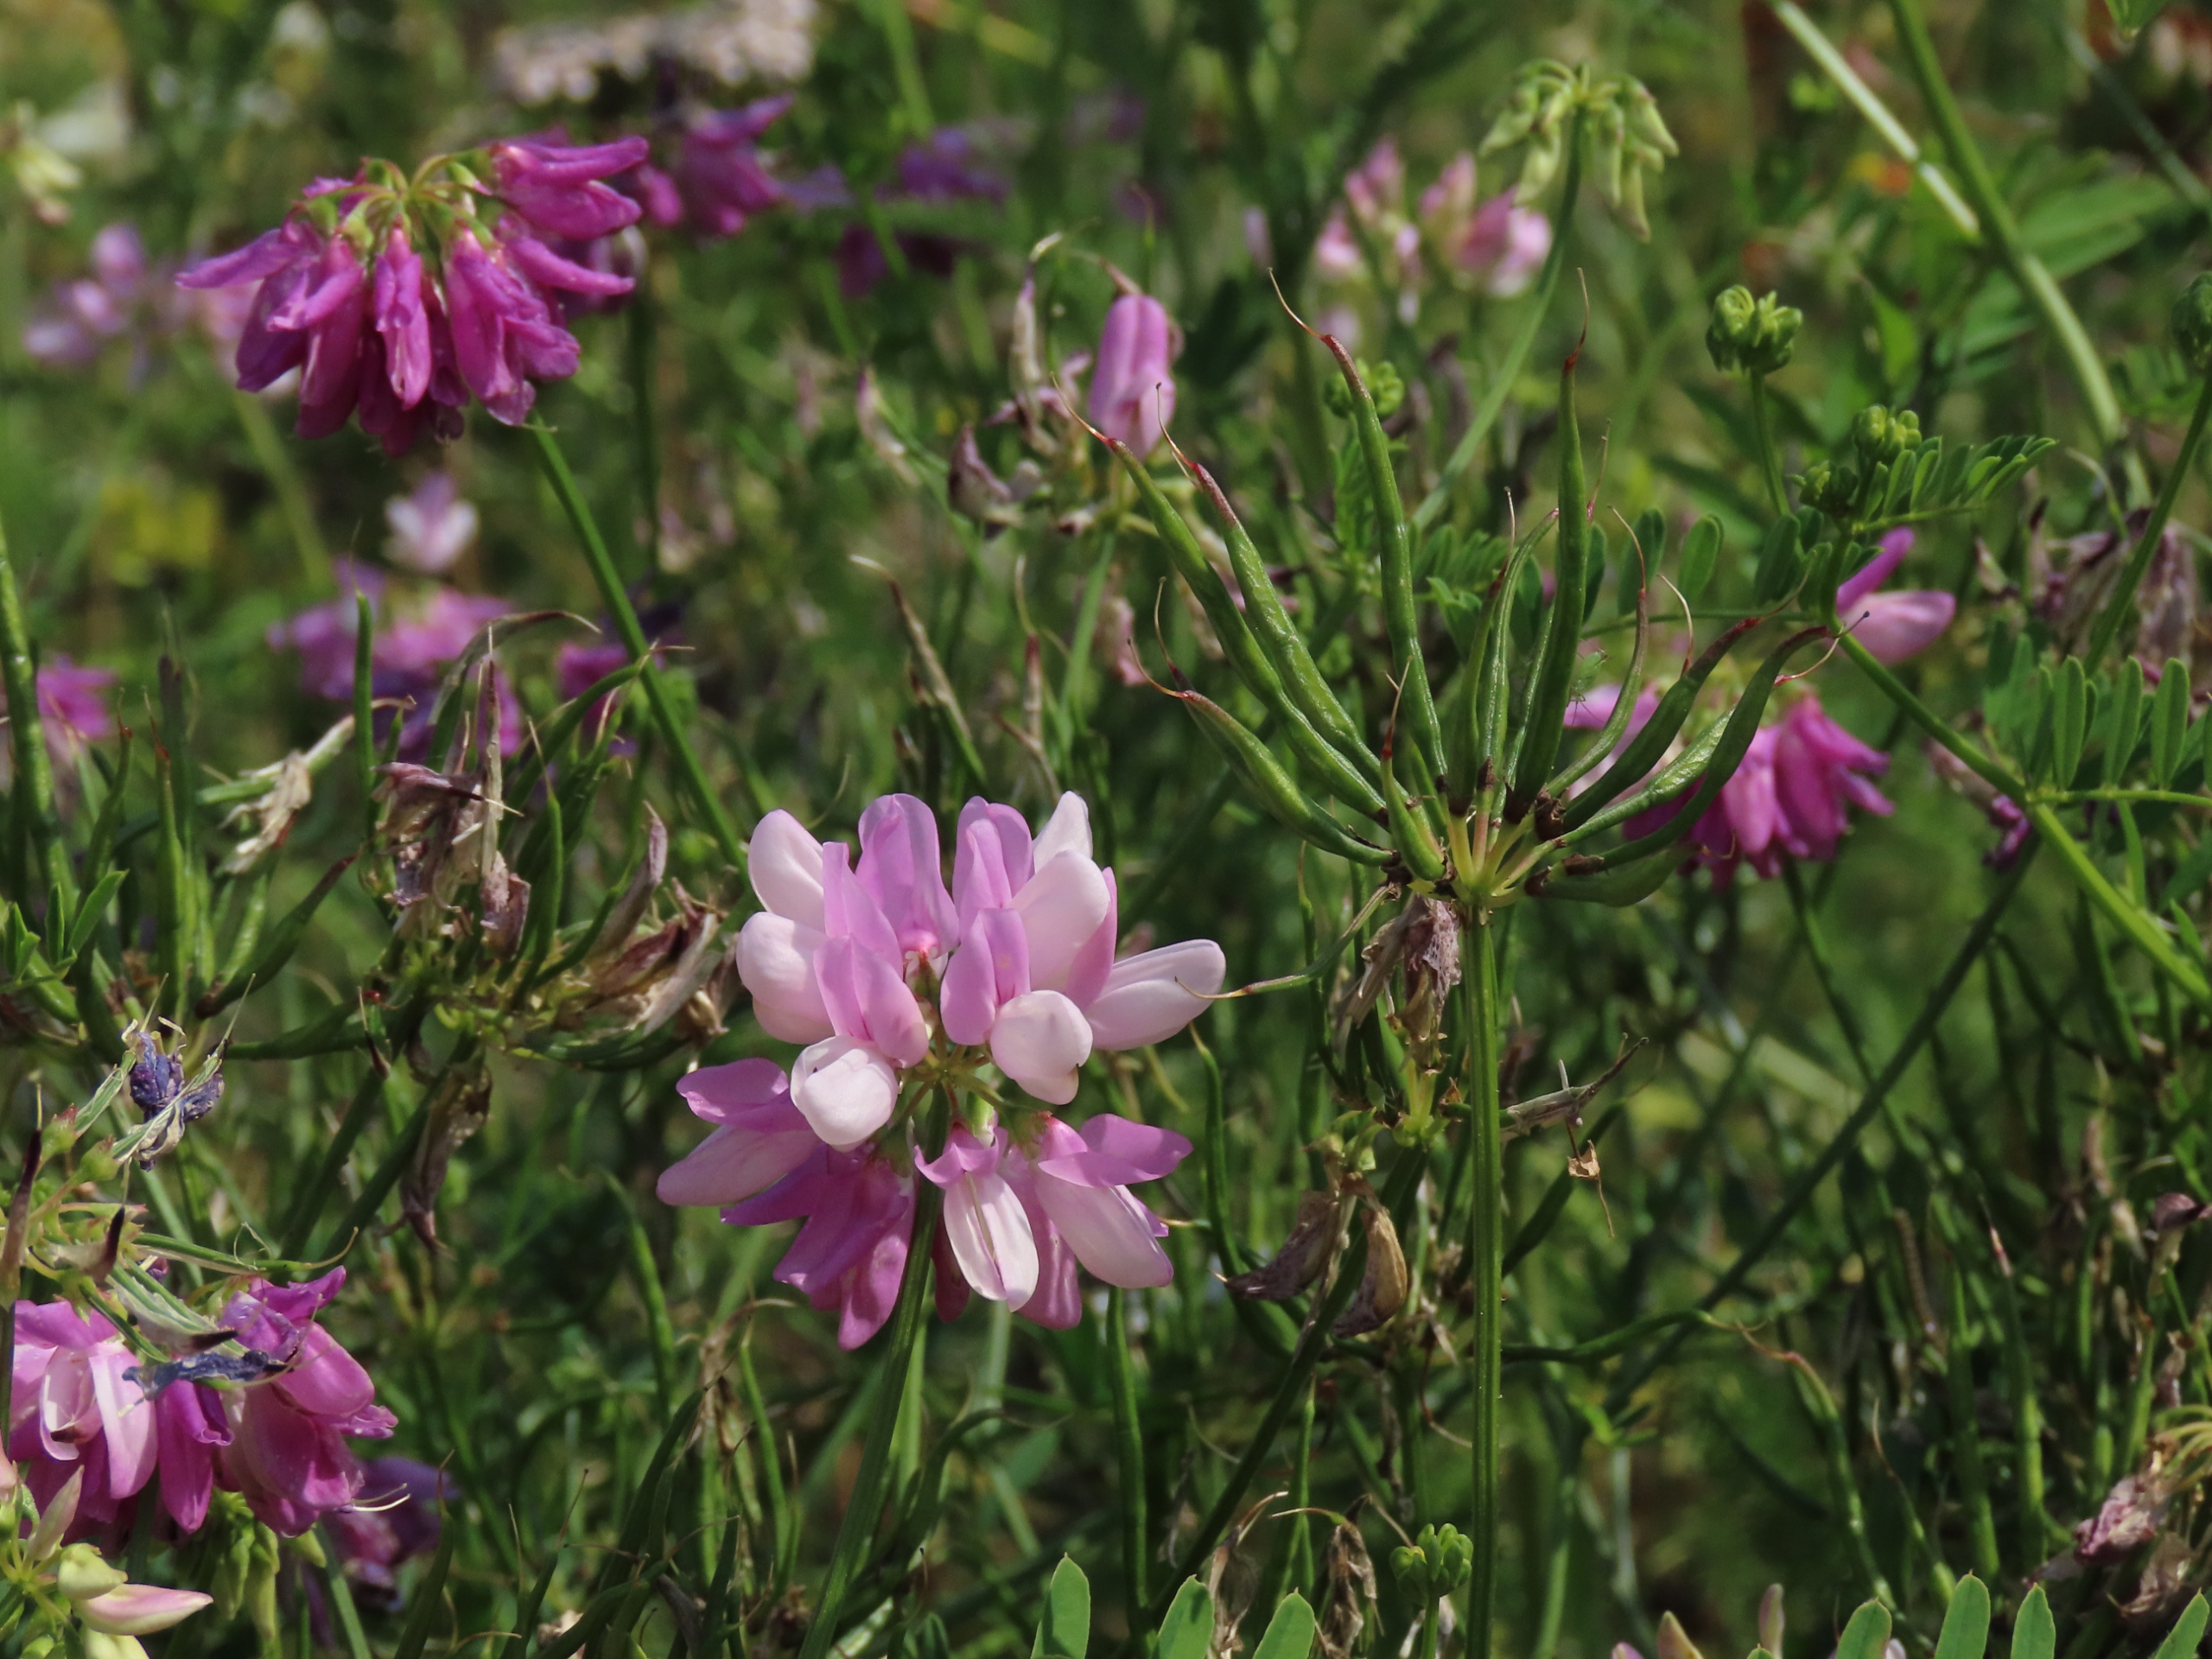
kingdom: Plantae
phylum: Tracheophyta
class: Magnoliopsida
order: Fabales
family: Fabaceae
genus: Coronilla
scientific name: Coronilla varia
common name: Giftig kronvikke
